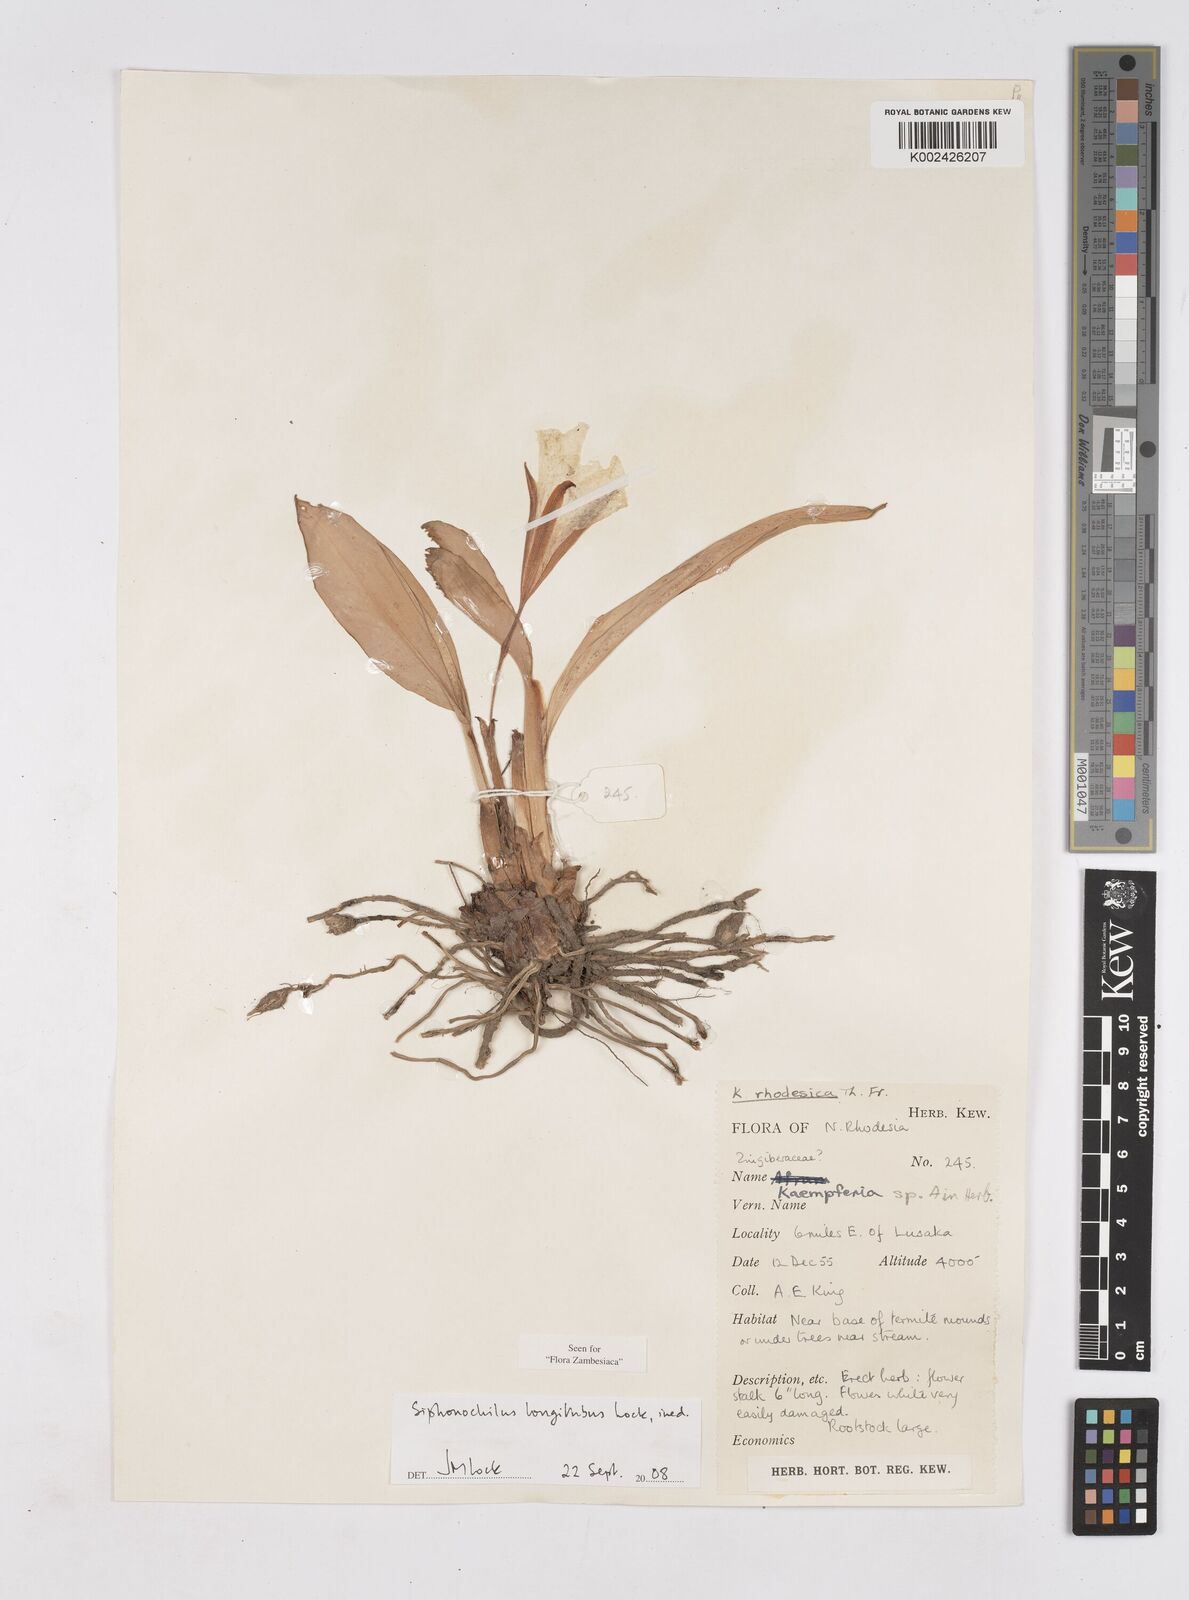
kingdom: Plantae
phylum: Tracheophyta
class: Liliopsida
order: Zingiberales
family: Zingiberaceae
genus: Siphonochilus
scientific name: Siphonochilus longitubus
